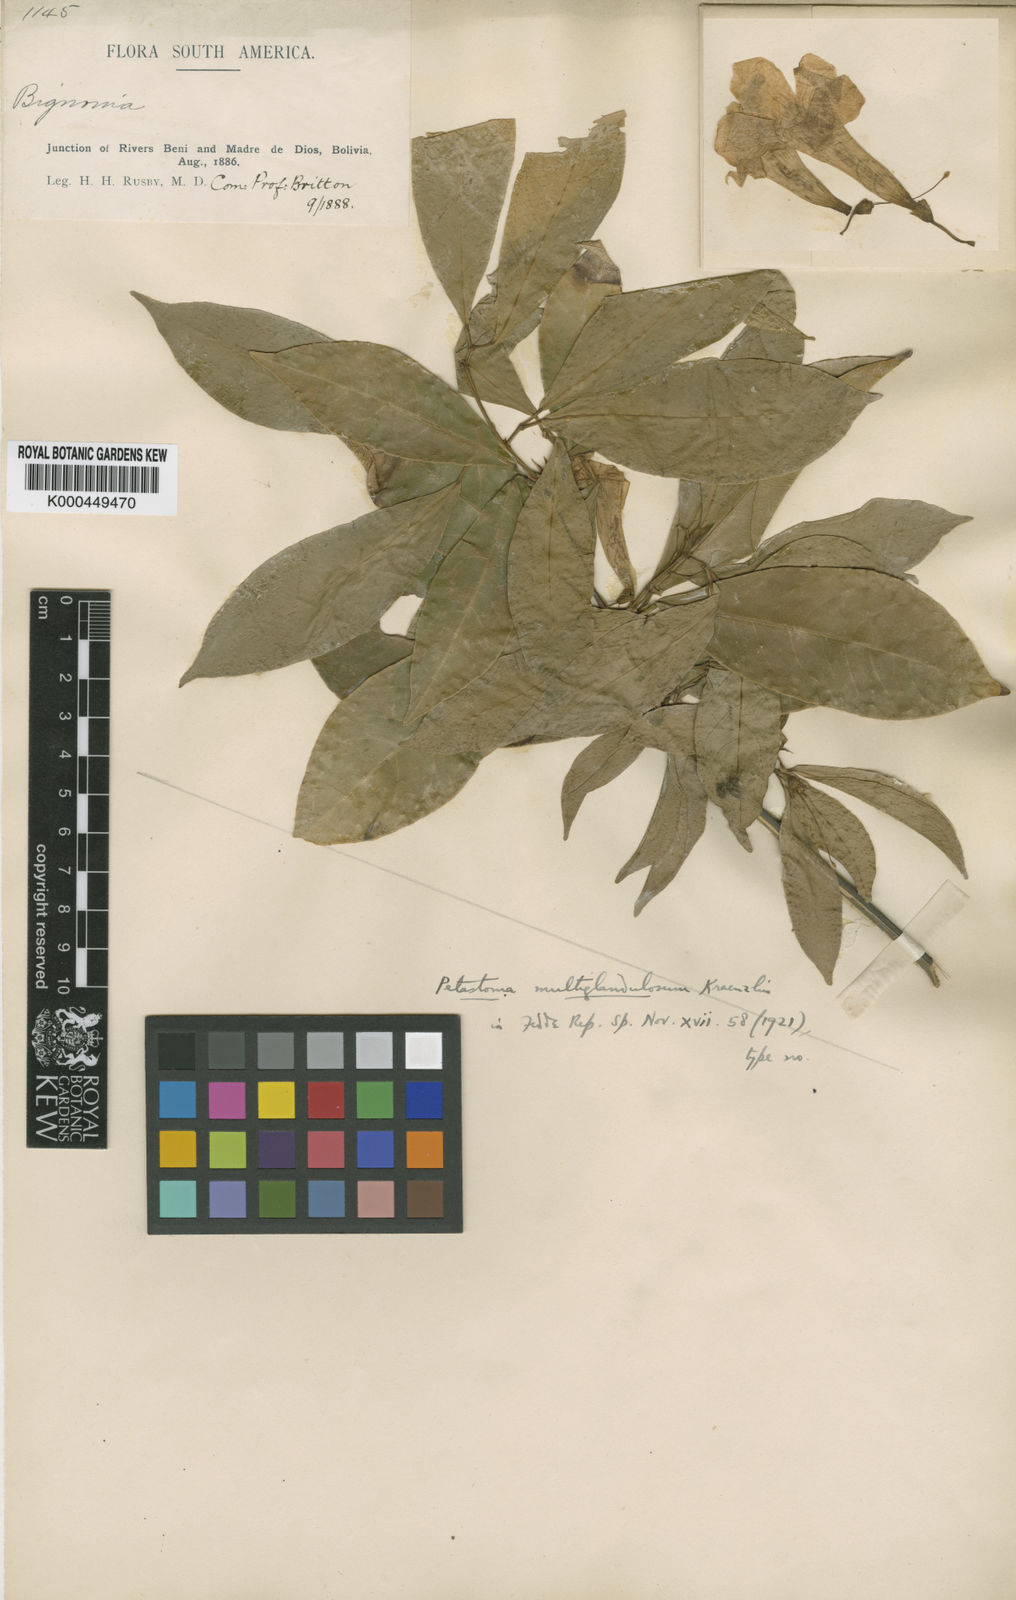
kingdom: Plantae
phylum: Tracheophyta
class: Magnoliopsida
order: Lamiales
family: Bignoniaceae
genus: Bignonia
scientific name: Bignonia
